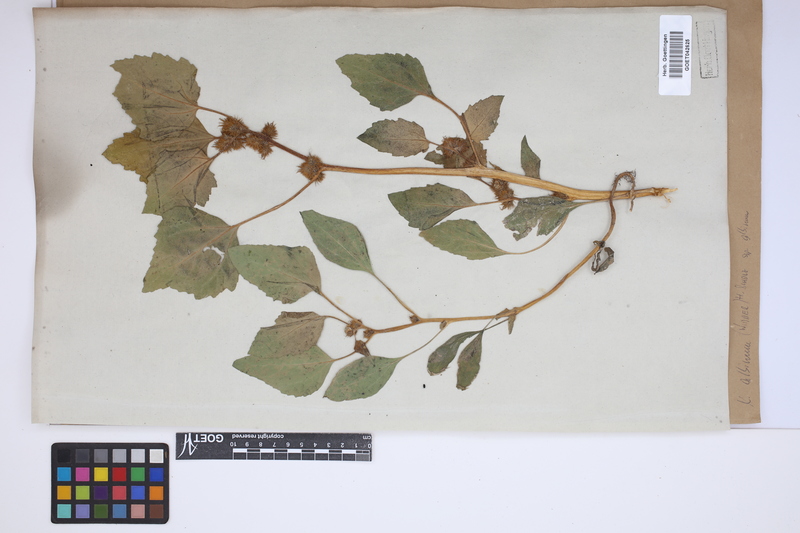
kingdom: Plantae
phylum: Tracheophyta
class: Magnoliopsida
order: Asterales
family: Asteraceae
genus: Xanthium
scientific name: Xanthium orientale
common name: Californian burr
